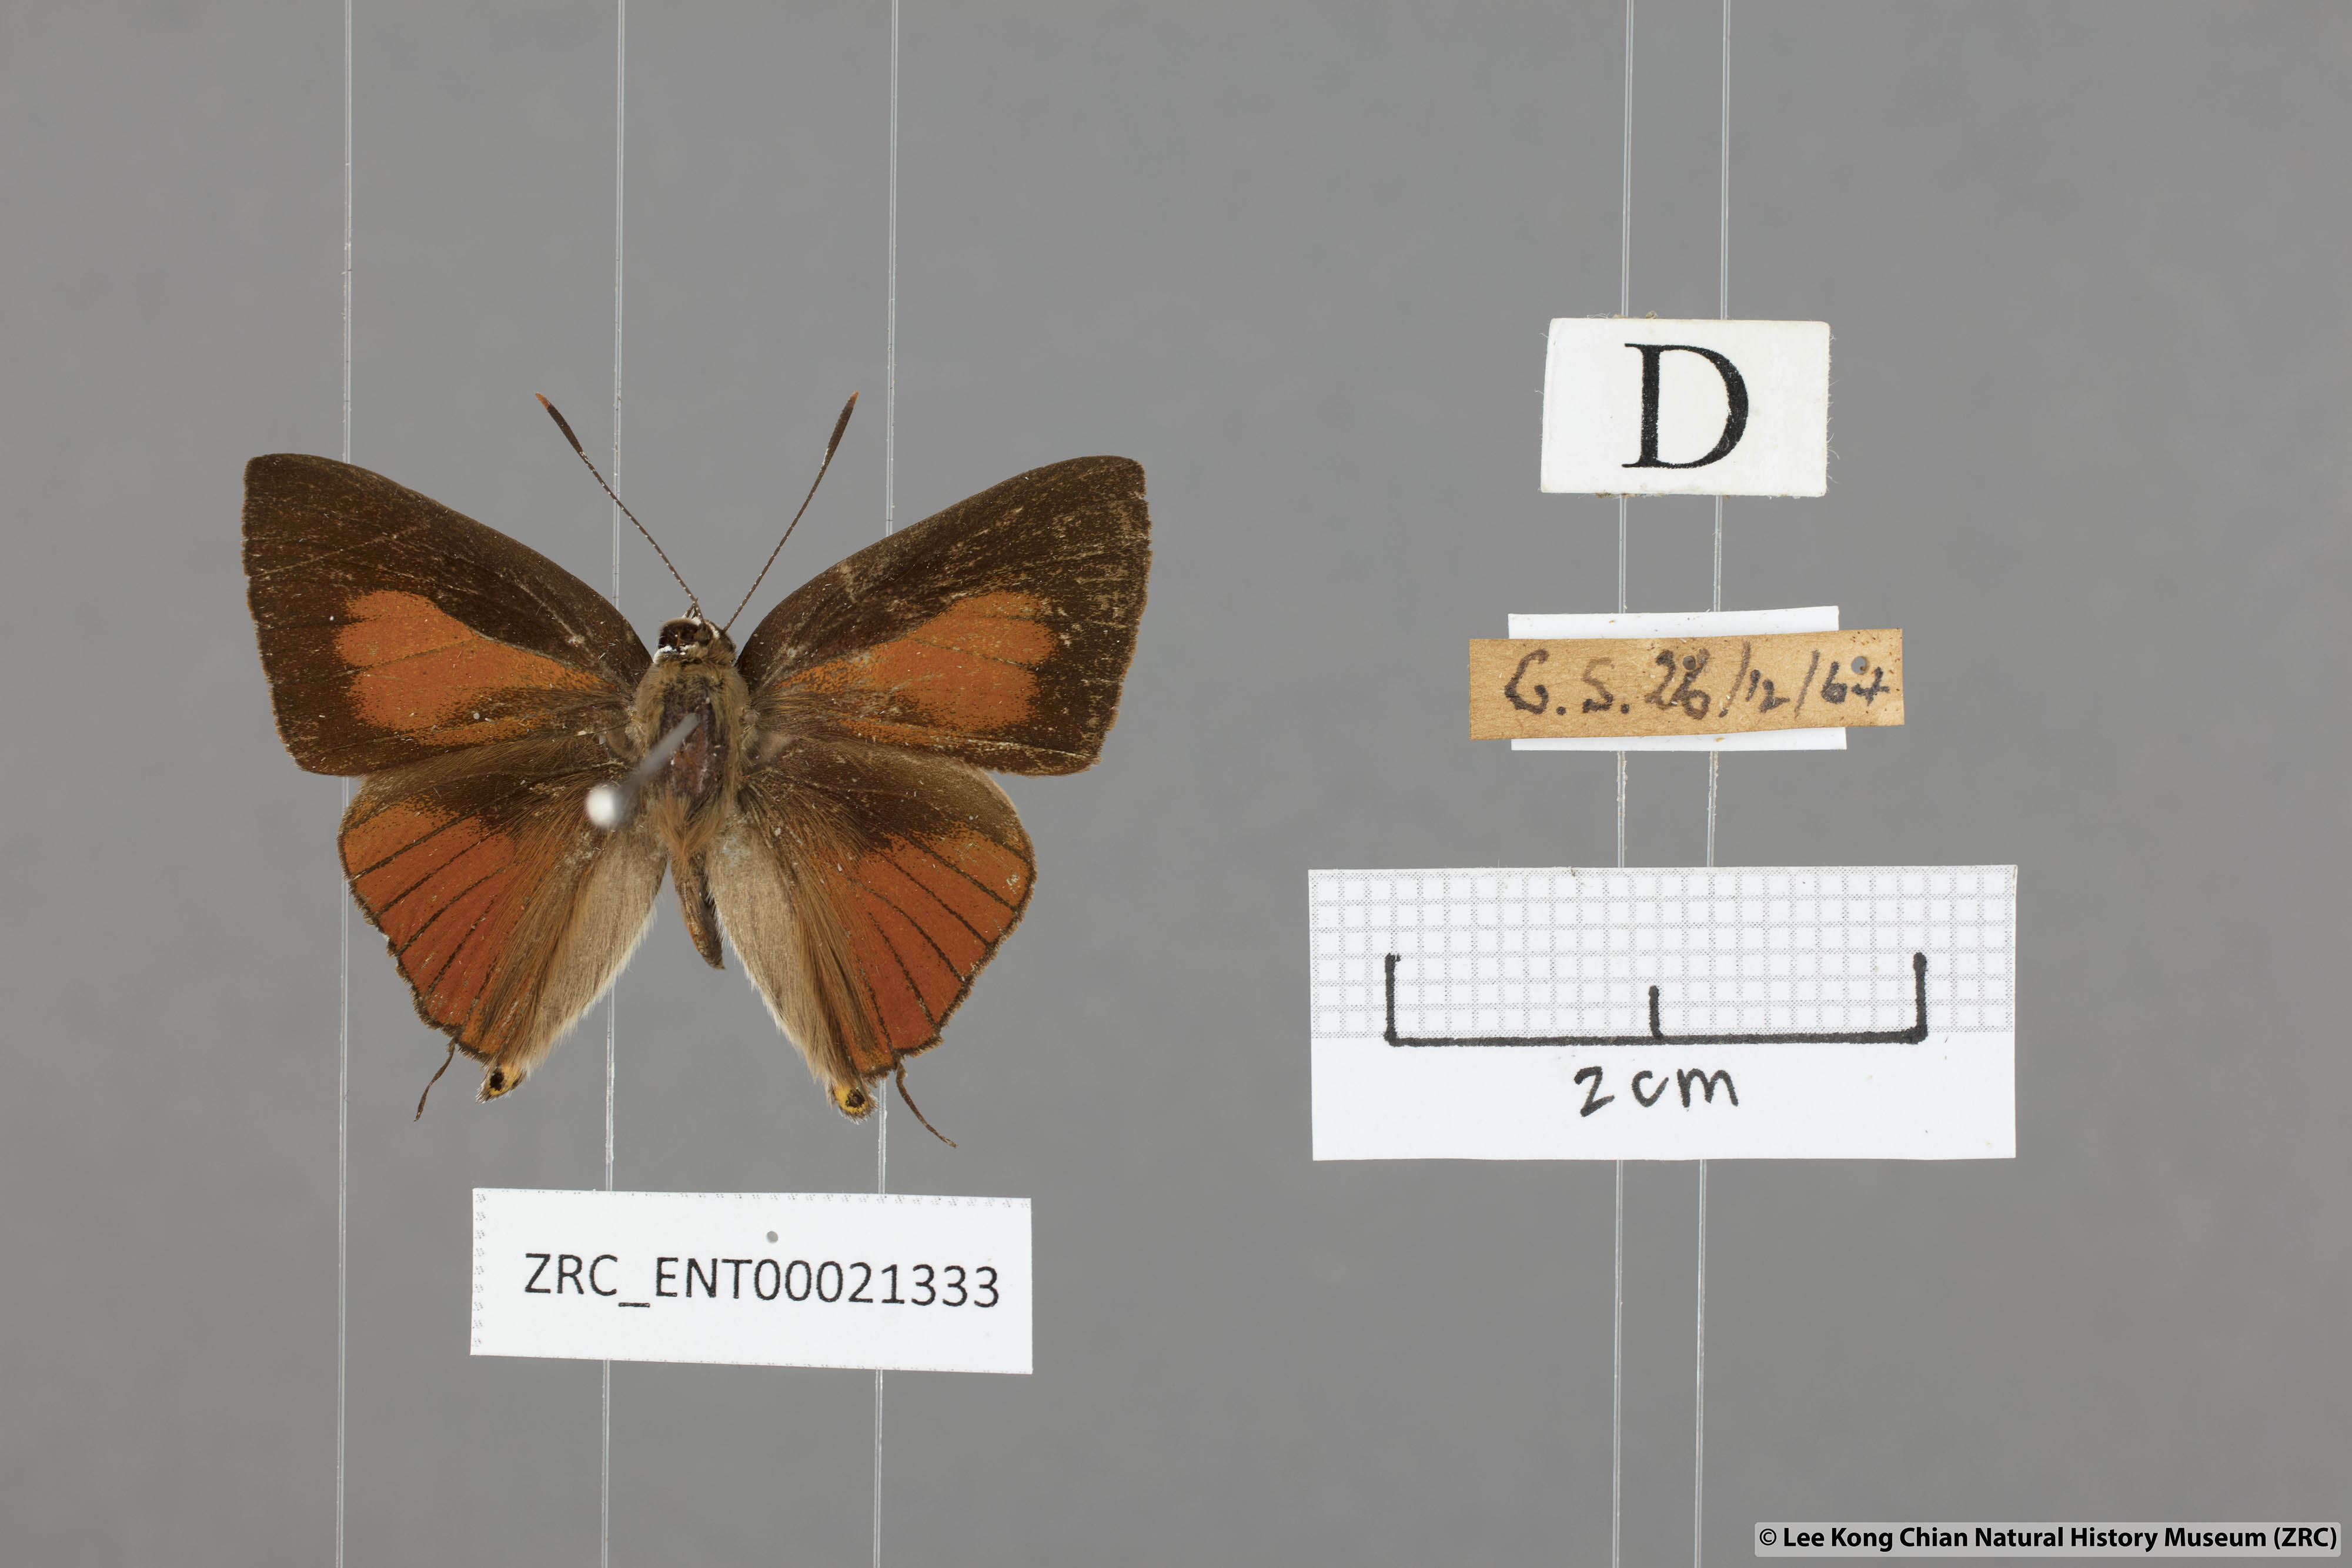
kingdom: Animalia
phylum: Arthropoda
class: Insecta
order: Lepidoptera
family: Lycaenidae
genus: Deudorix
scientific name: Deudorix epijarbas
